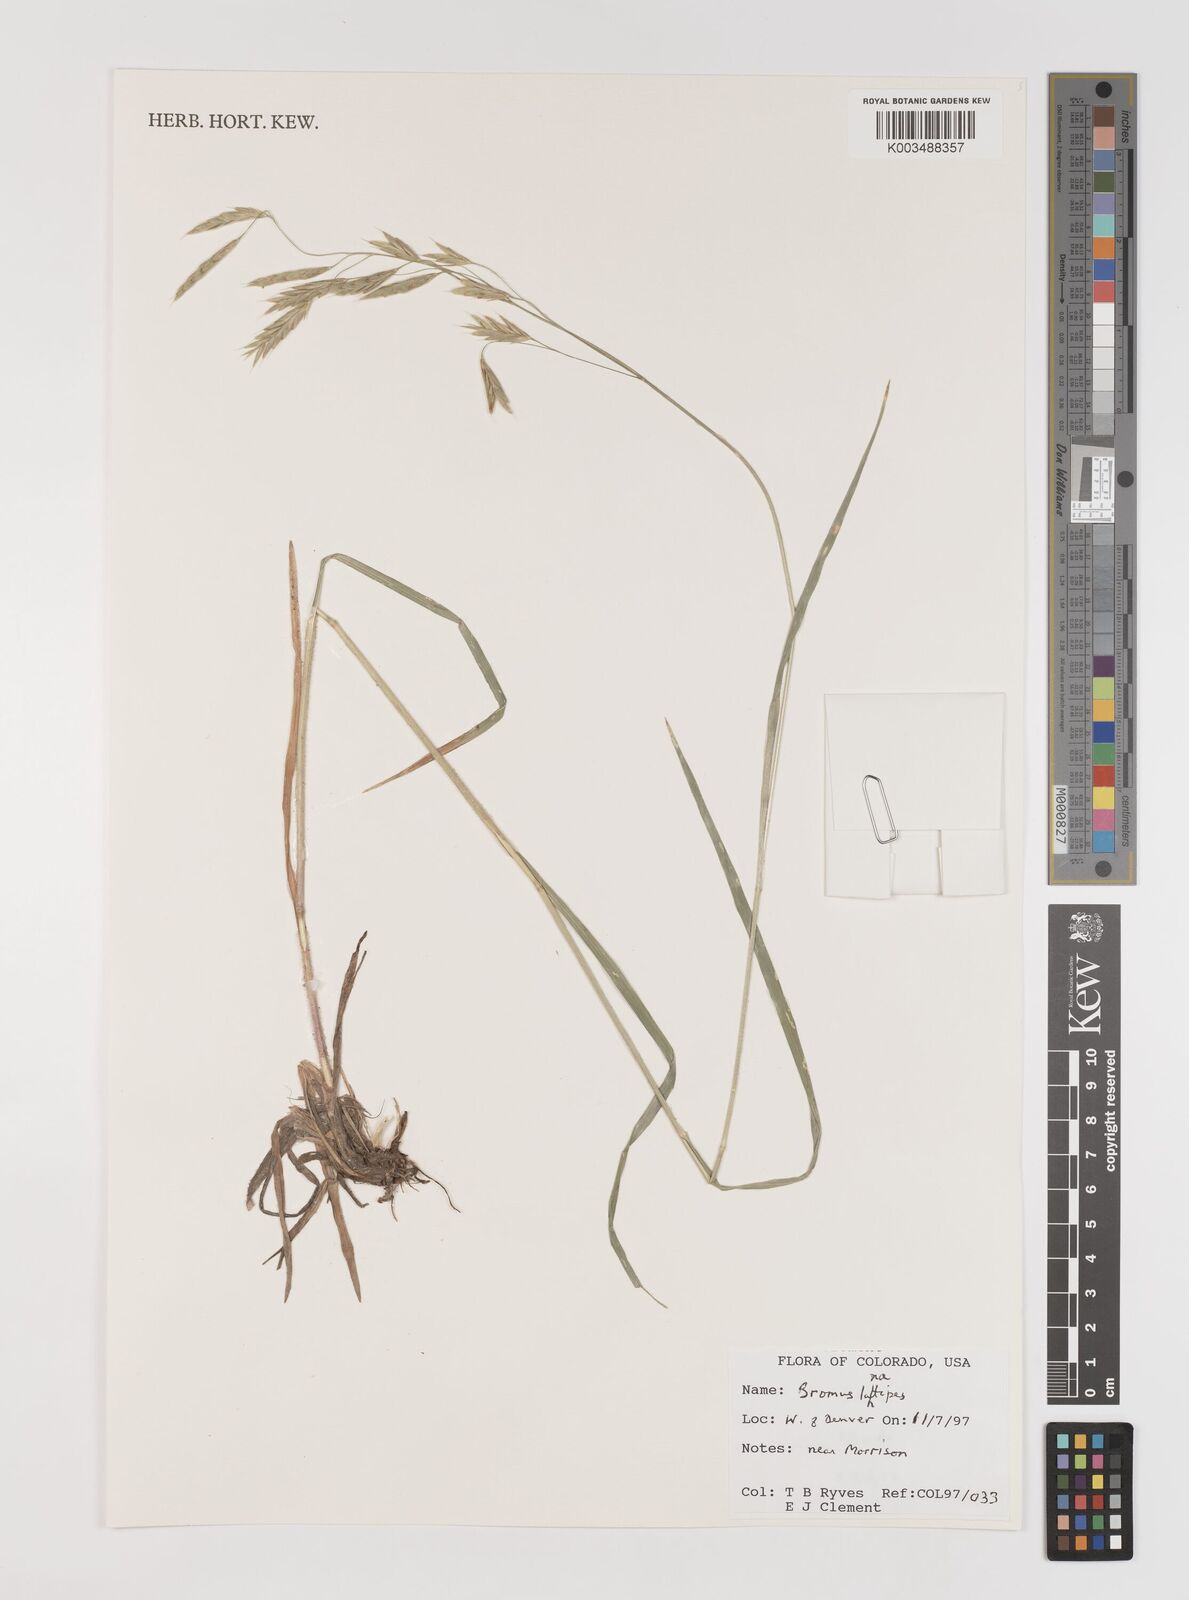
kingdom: Plantae
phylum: Tracheophyta
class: Liliopsida
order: Poales
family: Poaceae
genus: Bromus
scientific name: Bromus lanatipes
